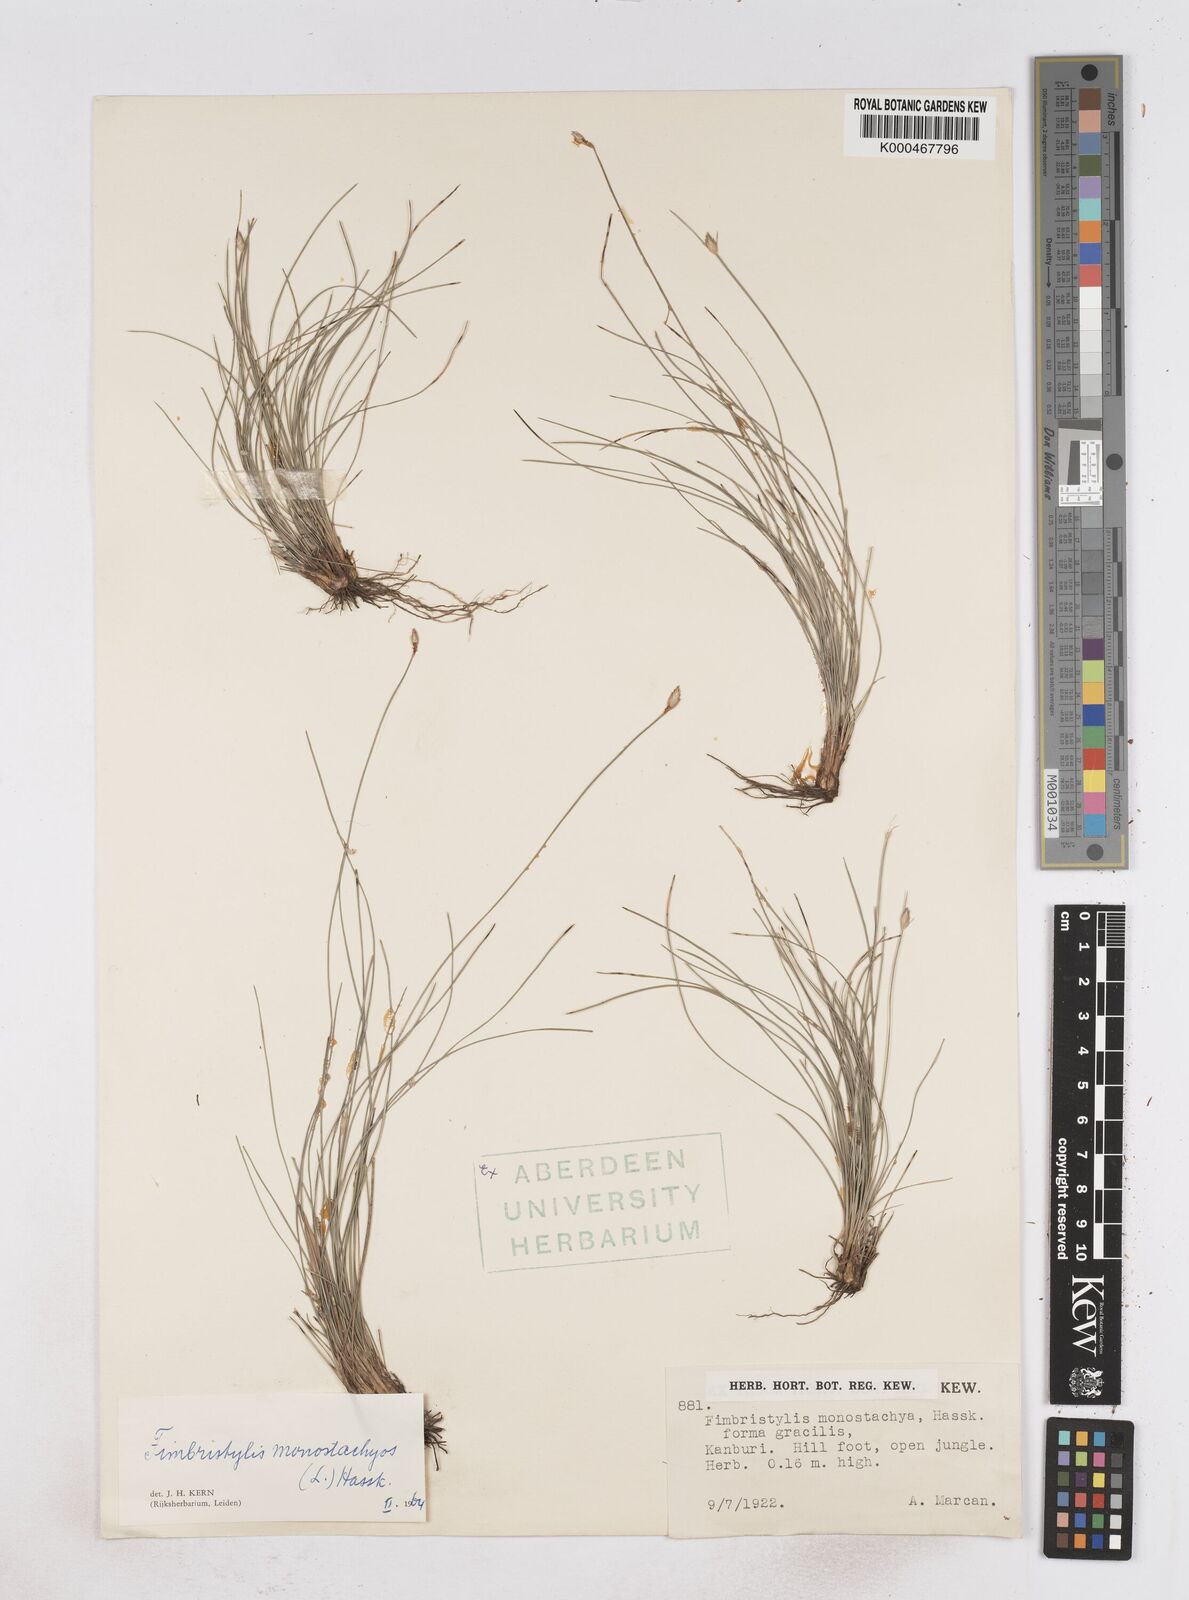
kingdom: Plantae
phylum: Tracheophyta
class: Liliopsida
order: Poales
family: Cyperaceae
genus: Abildgaardia
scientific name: Abildgaardia ovata
